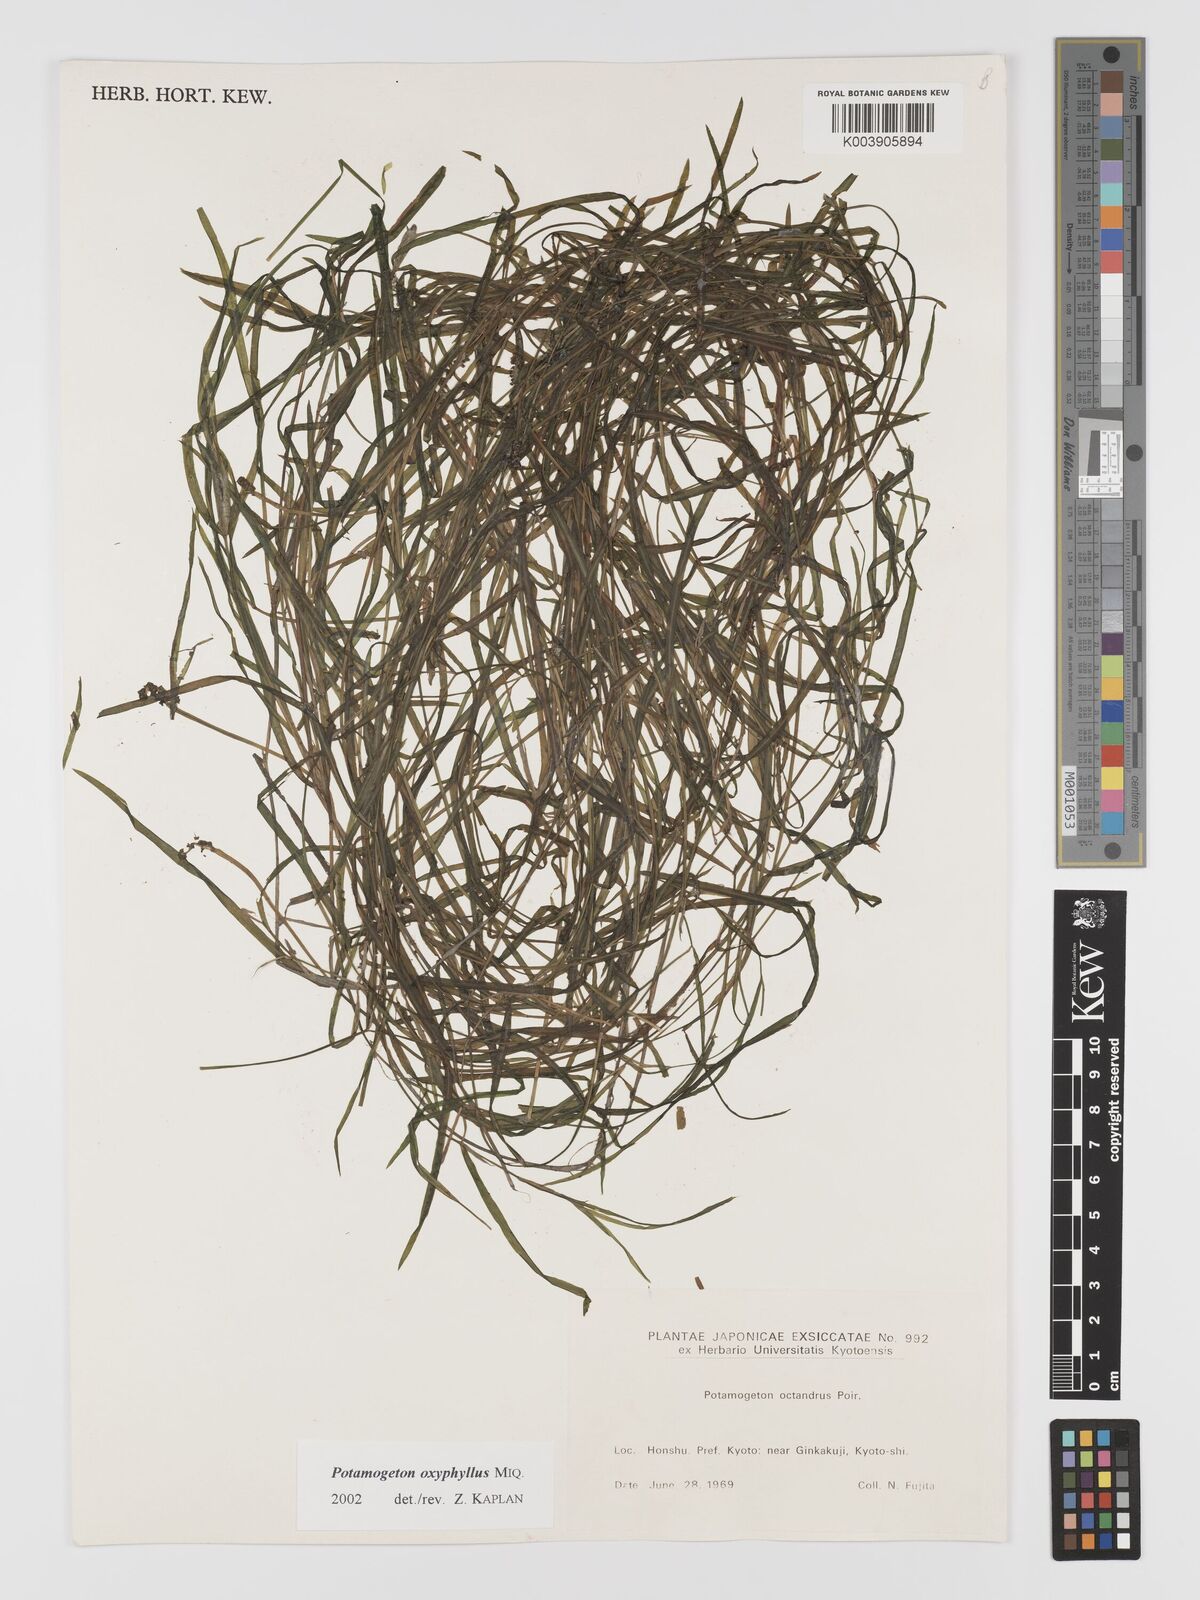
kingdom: Plantae
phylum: Tracheophyta
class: Liliopsida
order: Alismatales
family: Potamogetonaceae
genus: Potamogeton
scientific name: Potamogeton oxyphyllus
